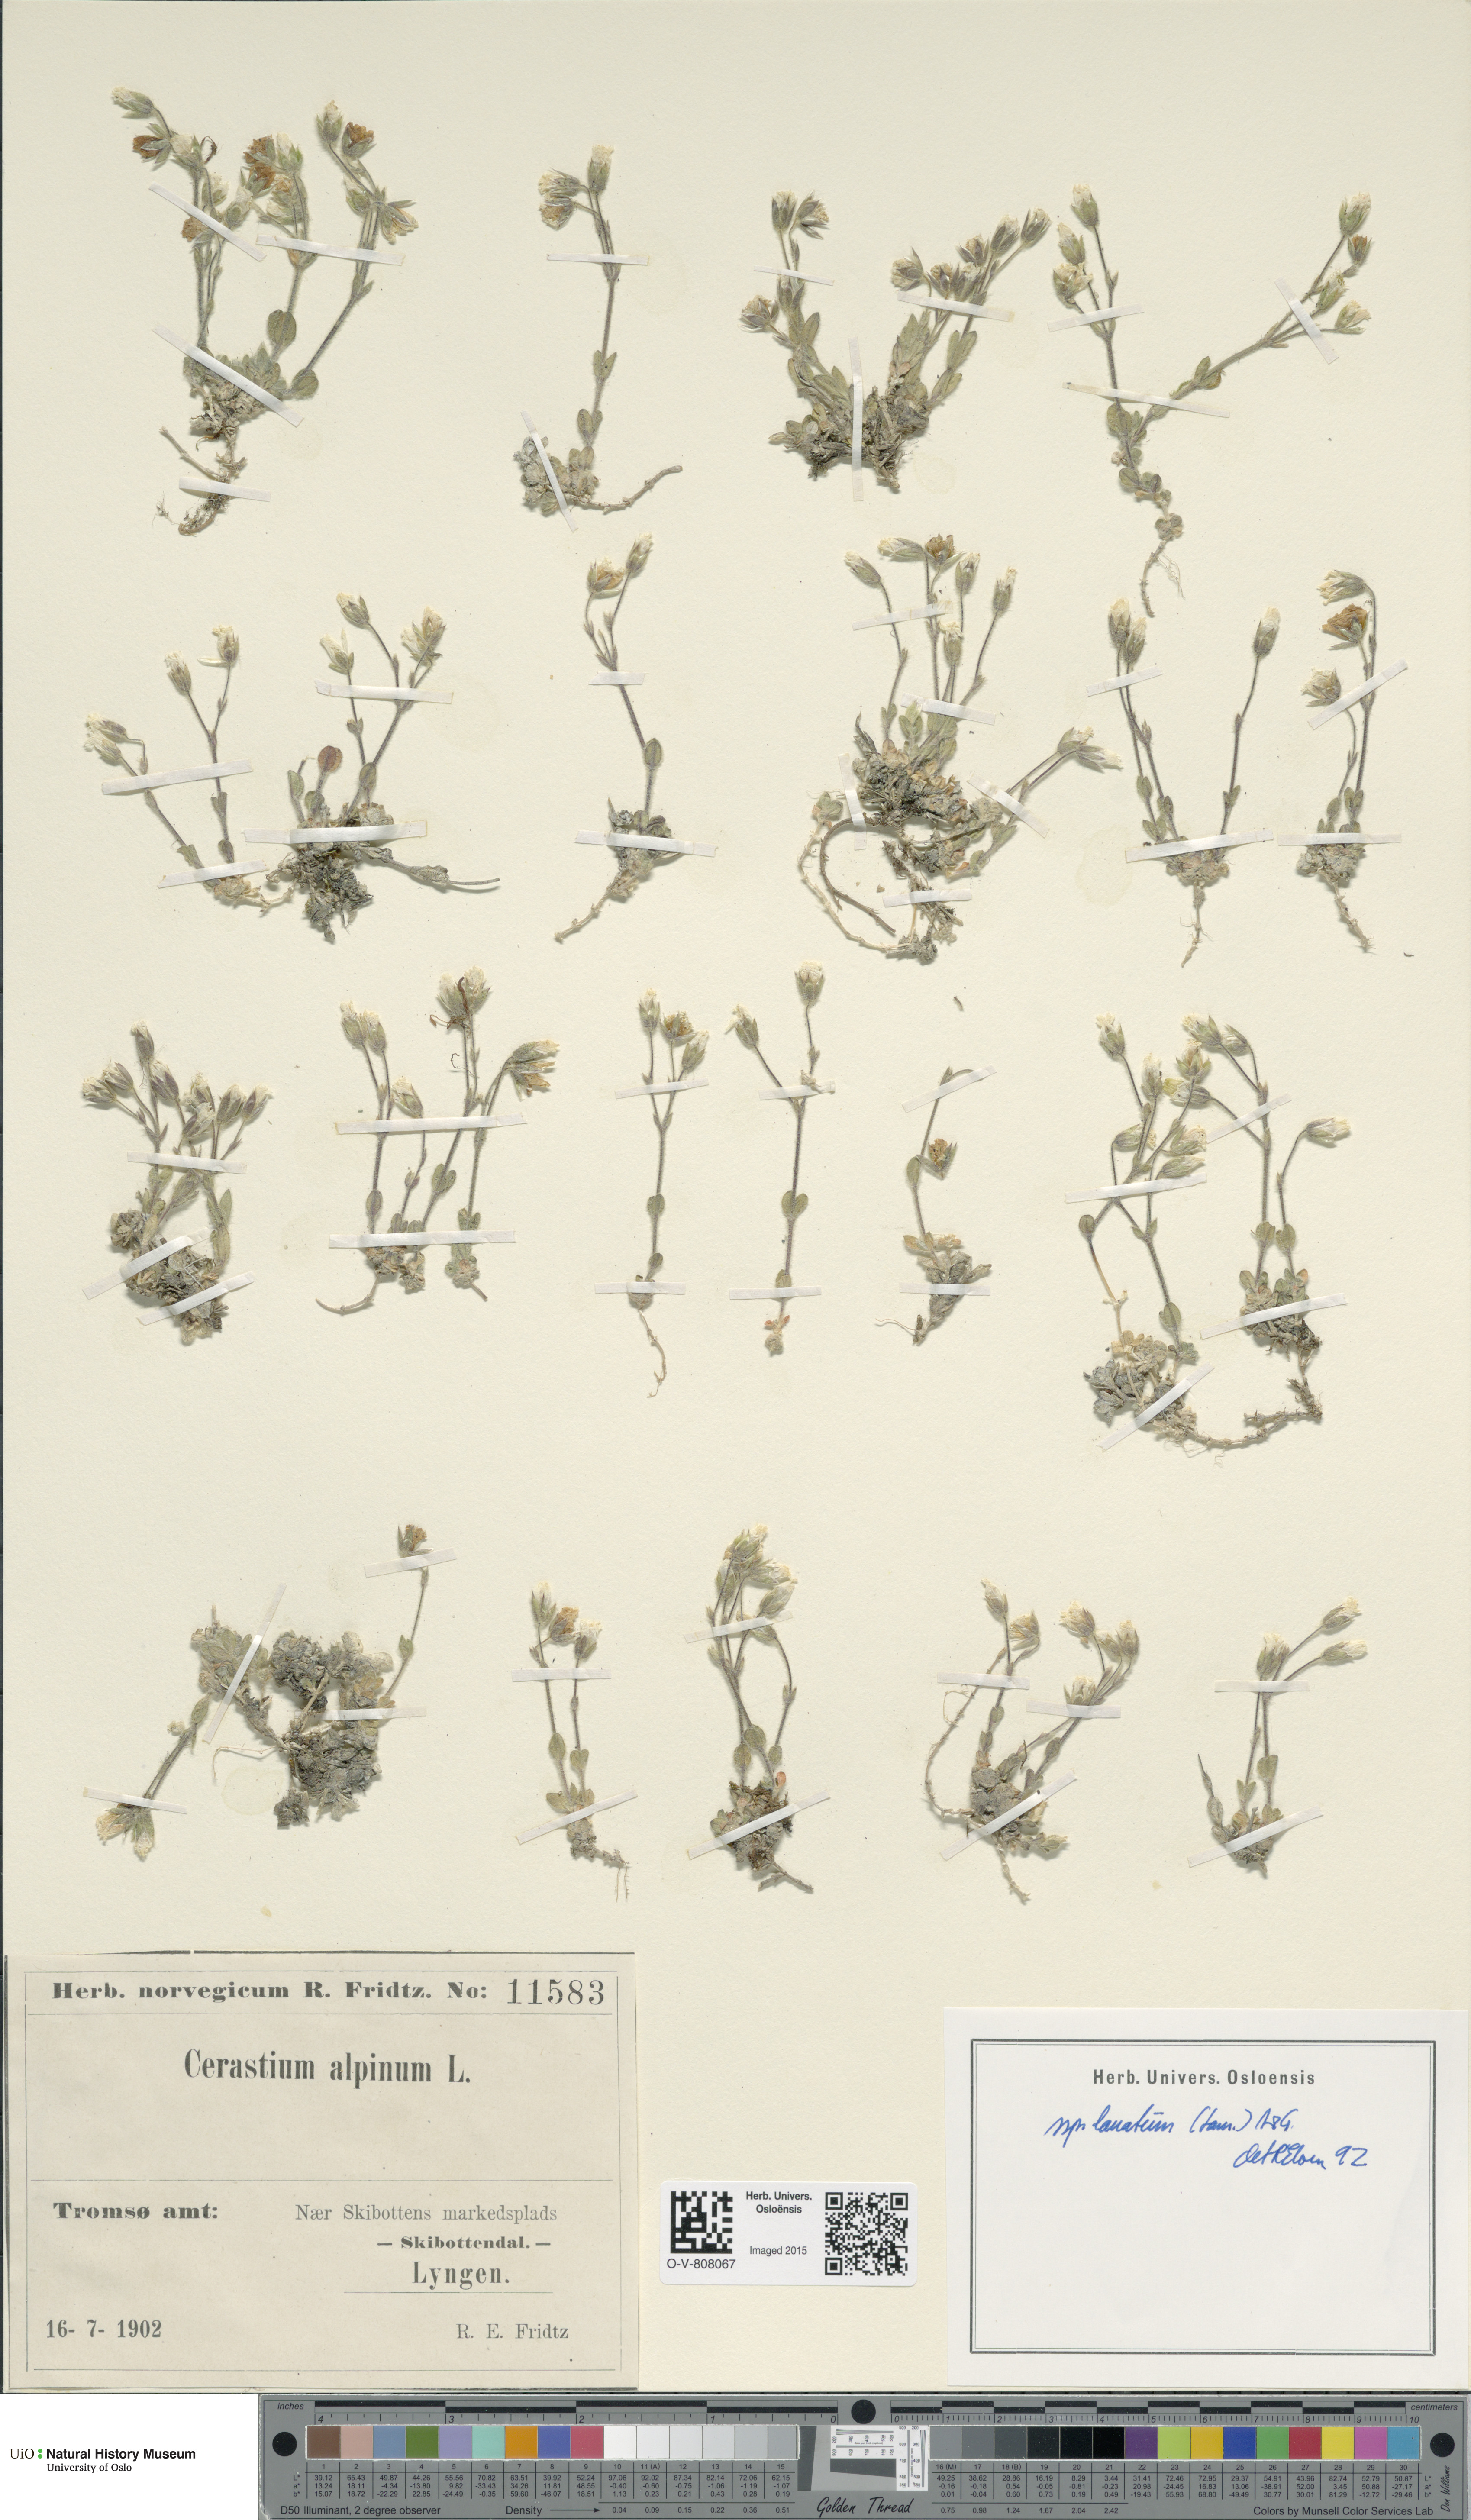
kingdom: Plantae
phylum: Tracheophyta
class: Magnoliopsida
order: Caryophyllales
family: Caryophyllaceae
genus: Cerastium
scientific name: Cerastium alpinum
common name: Alpine mouse-ear
